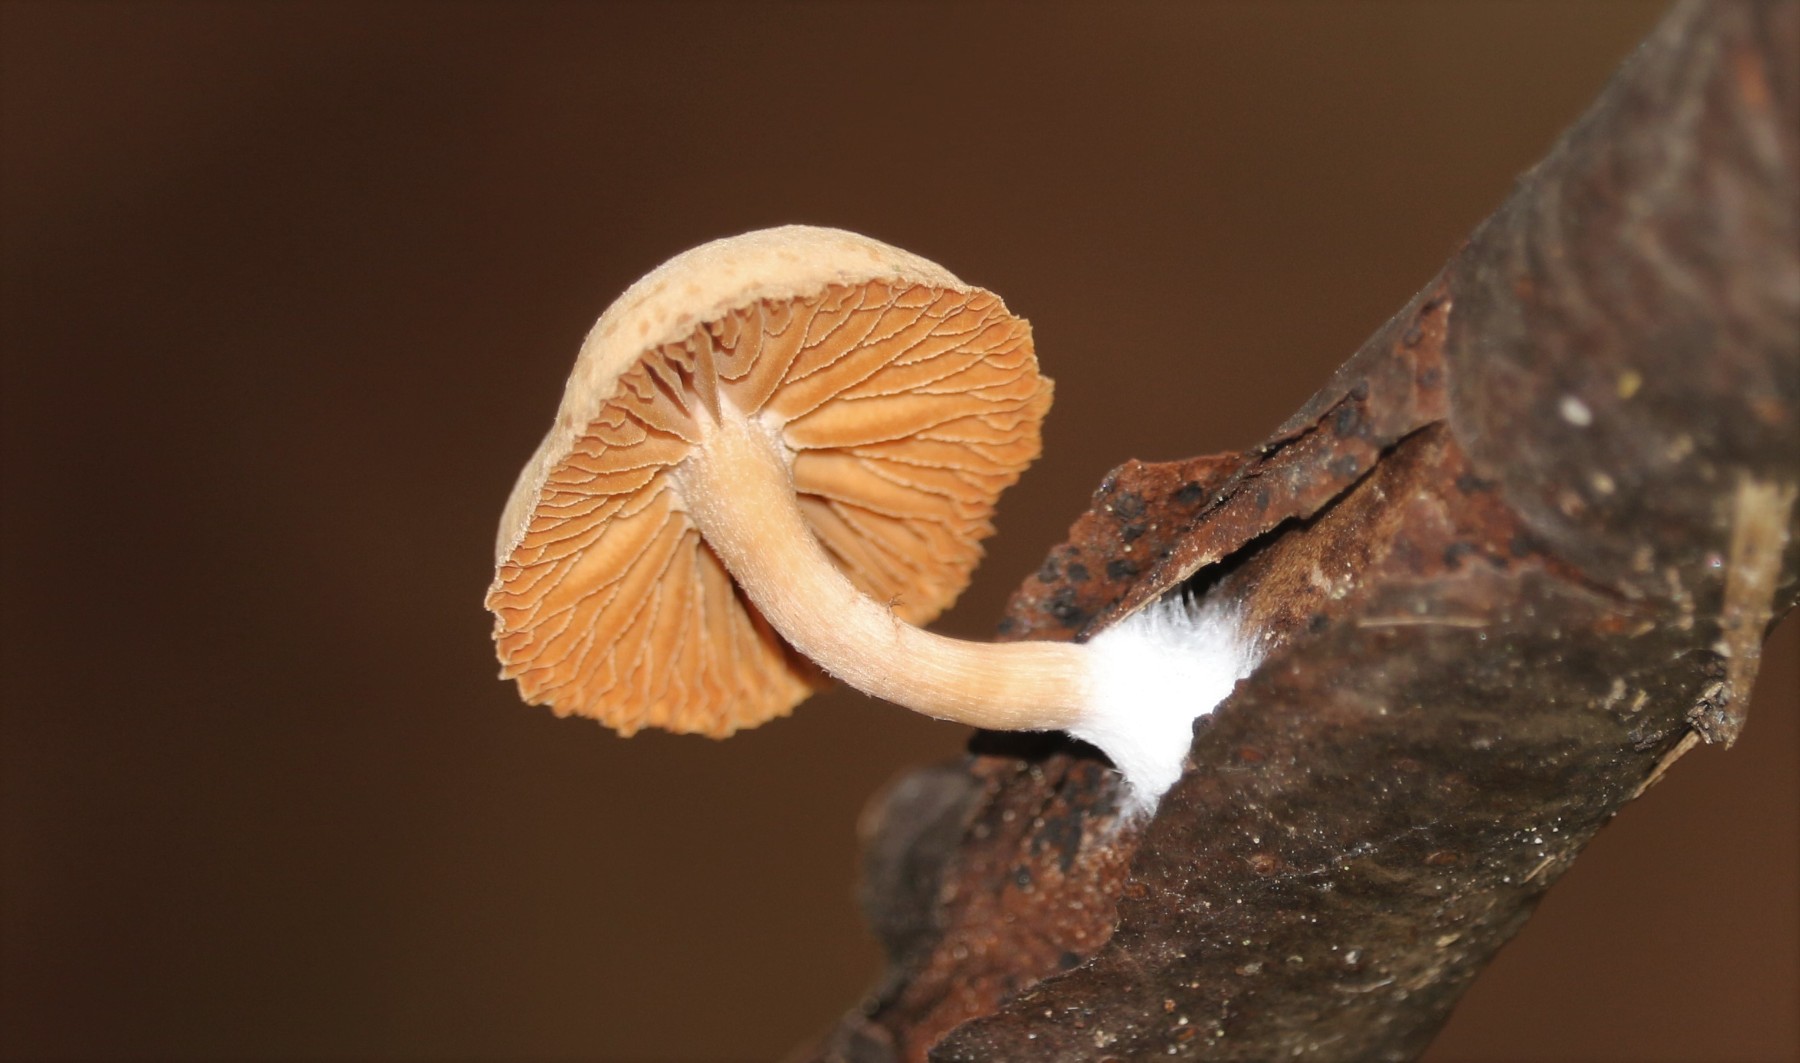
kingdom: Fungi
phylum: Basidiomycota
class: Agaricomycetes
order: Agaricales
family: Tubariaceae
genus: Tubaria
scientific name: Tubaria
